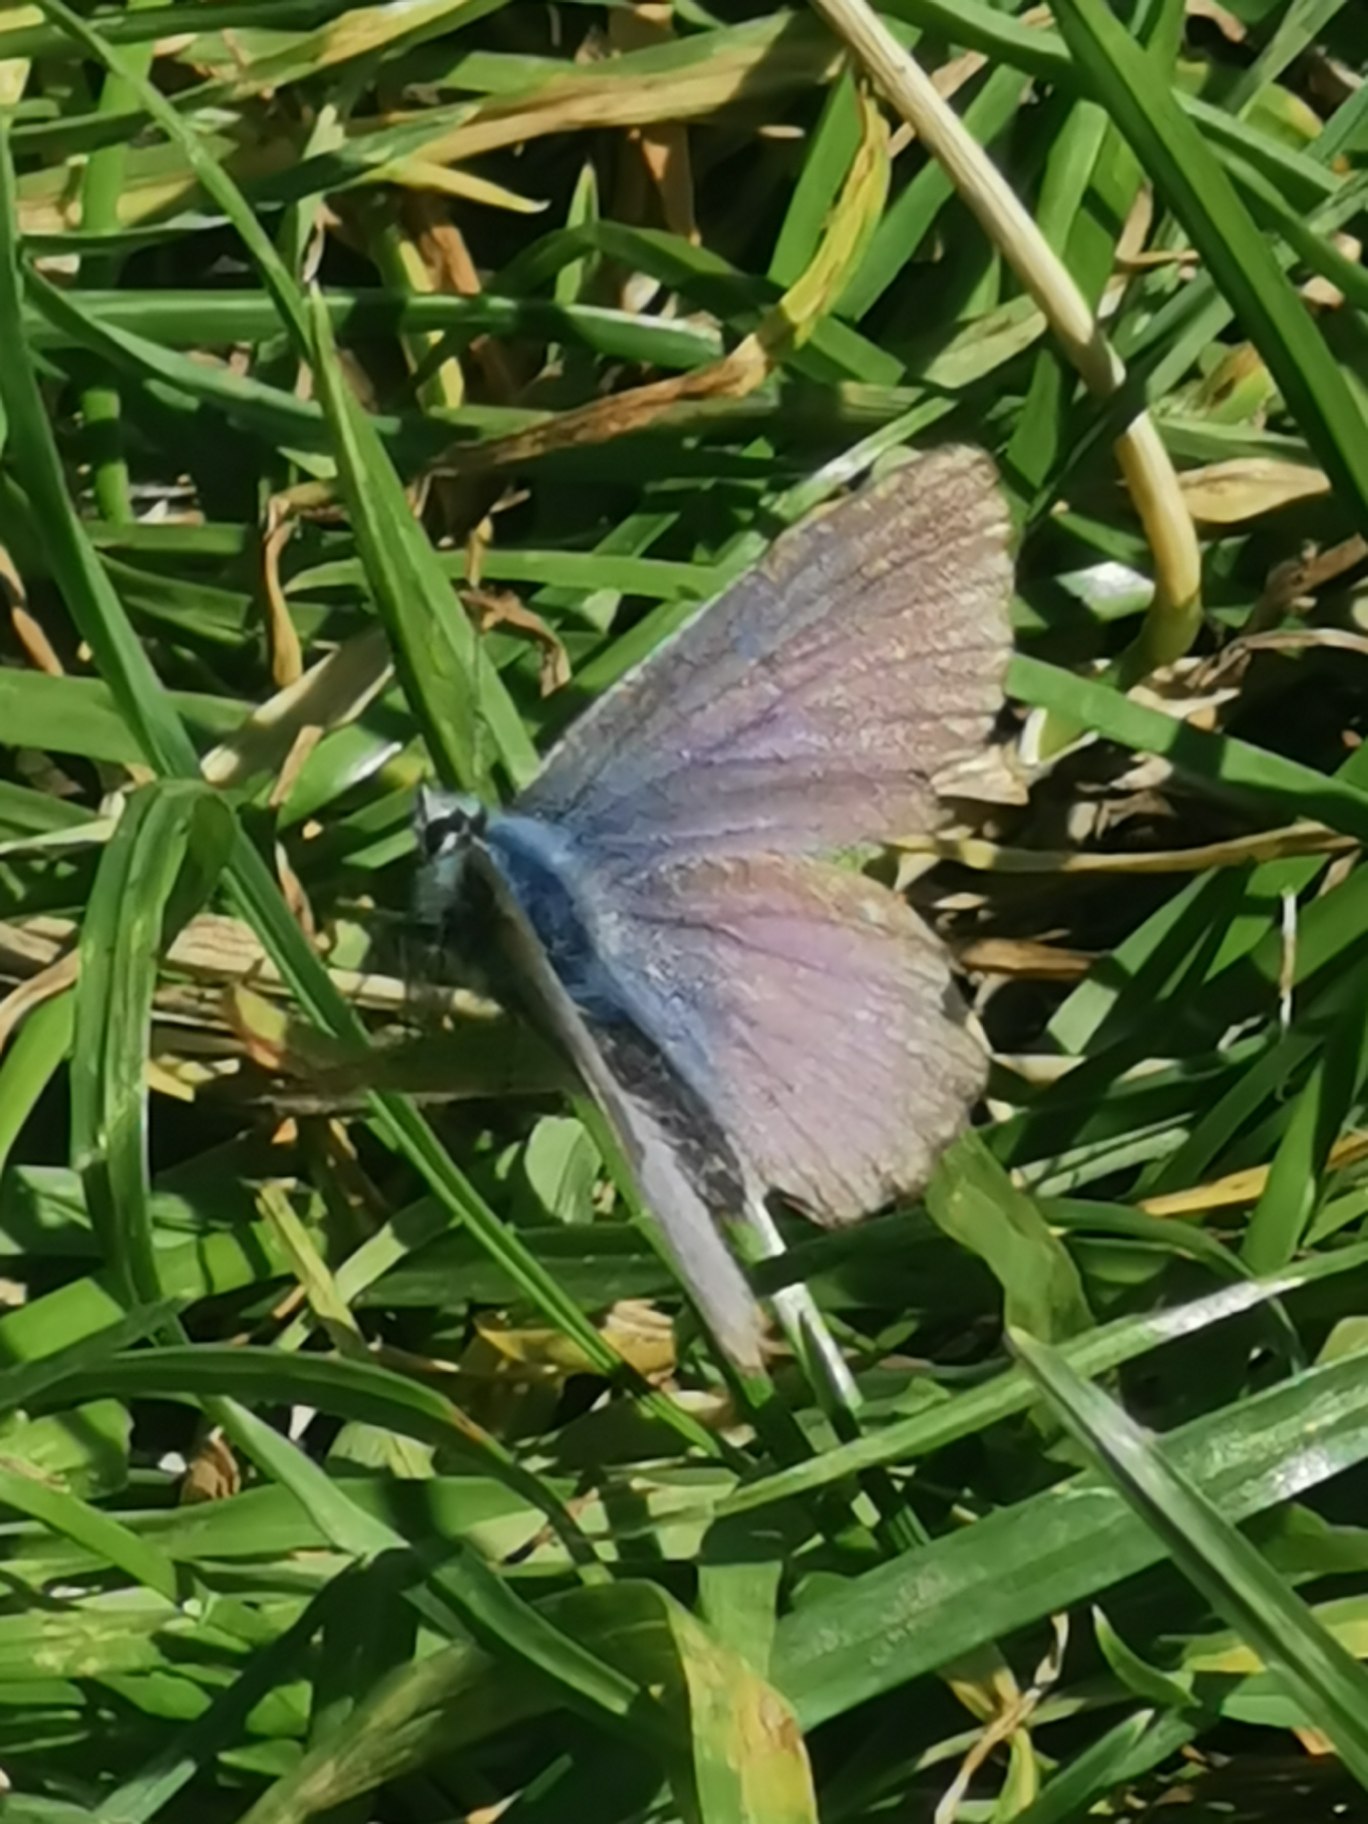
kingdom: Animalia
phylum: Arthropoda
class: Insecta
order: Lepidoptera
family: Lycaenidae
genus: Polyommatus
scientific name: Polyommatus icarus
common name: Almindelig blåfugl
